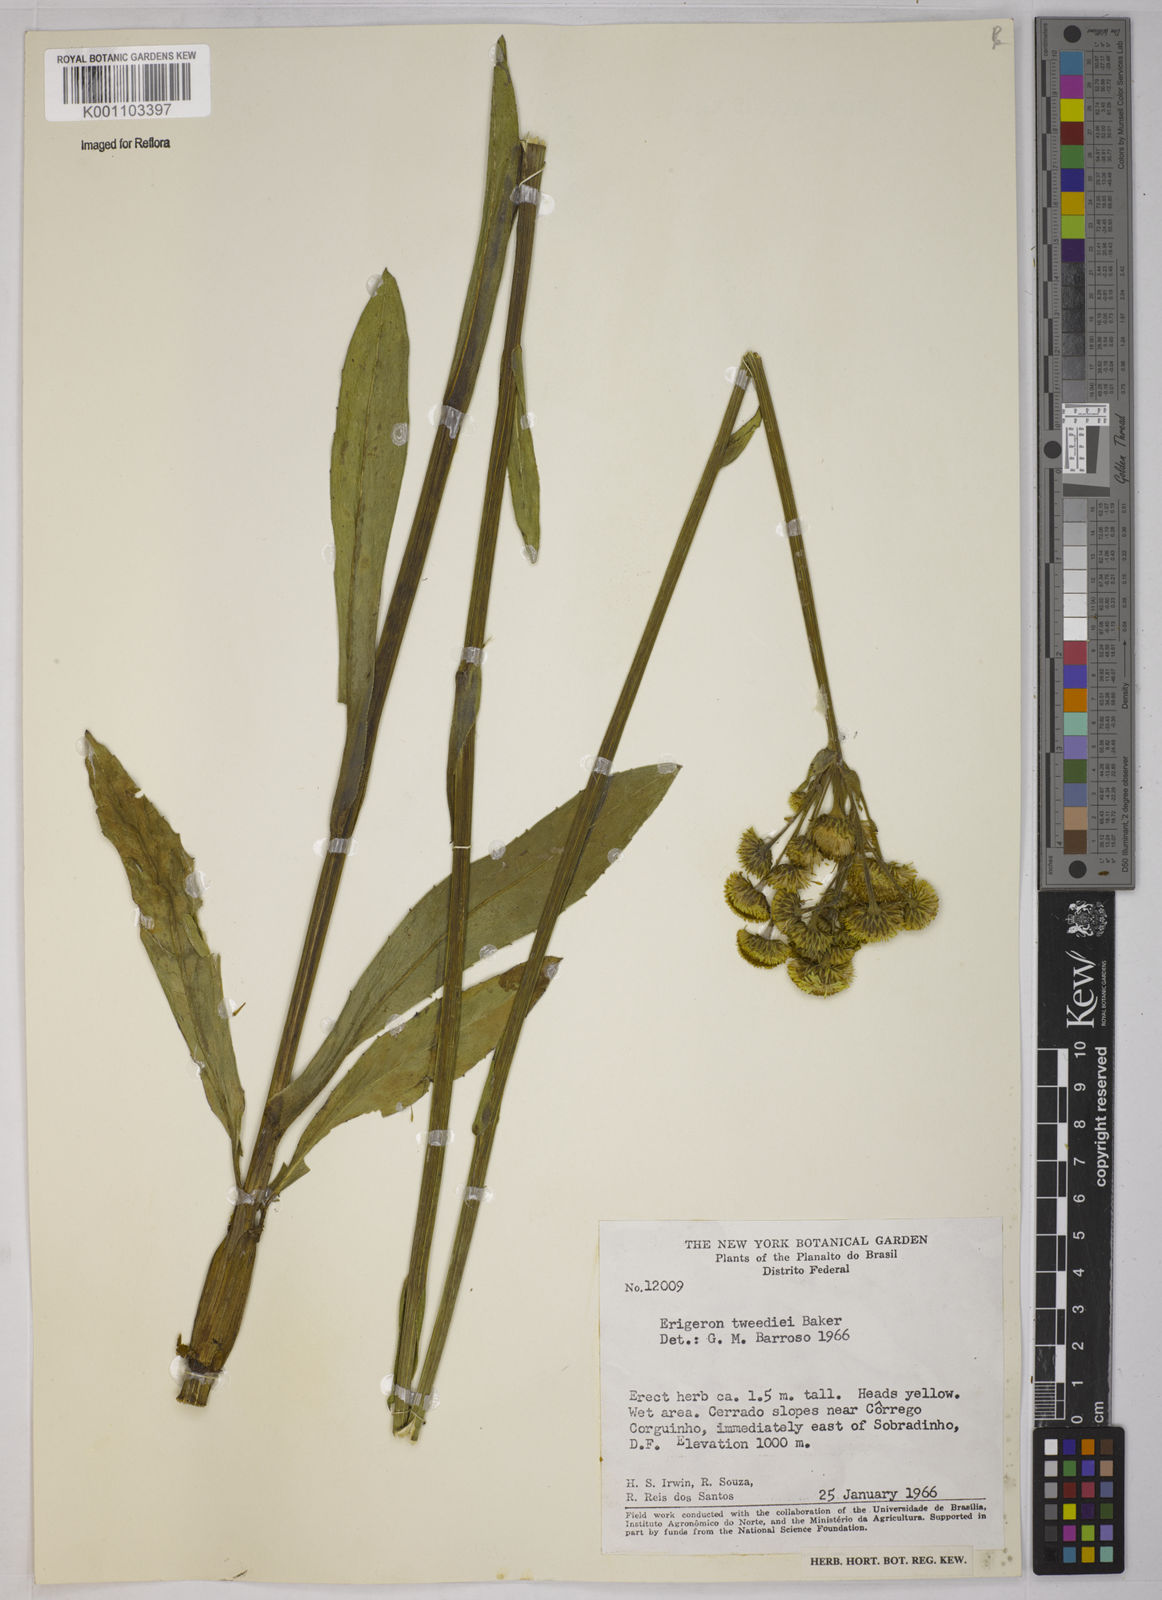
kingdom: Plantae
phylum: Tracheophyta
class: Magnoliopsida
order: Asterales
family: Asteraceae
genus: Leptostelma
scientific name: Leptostelma tweediei
